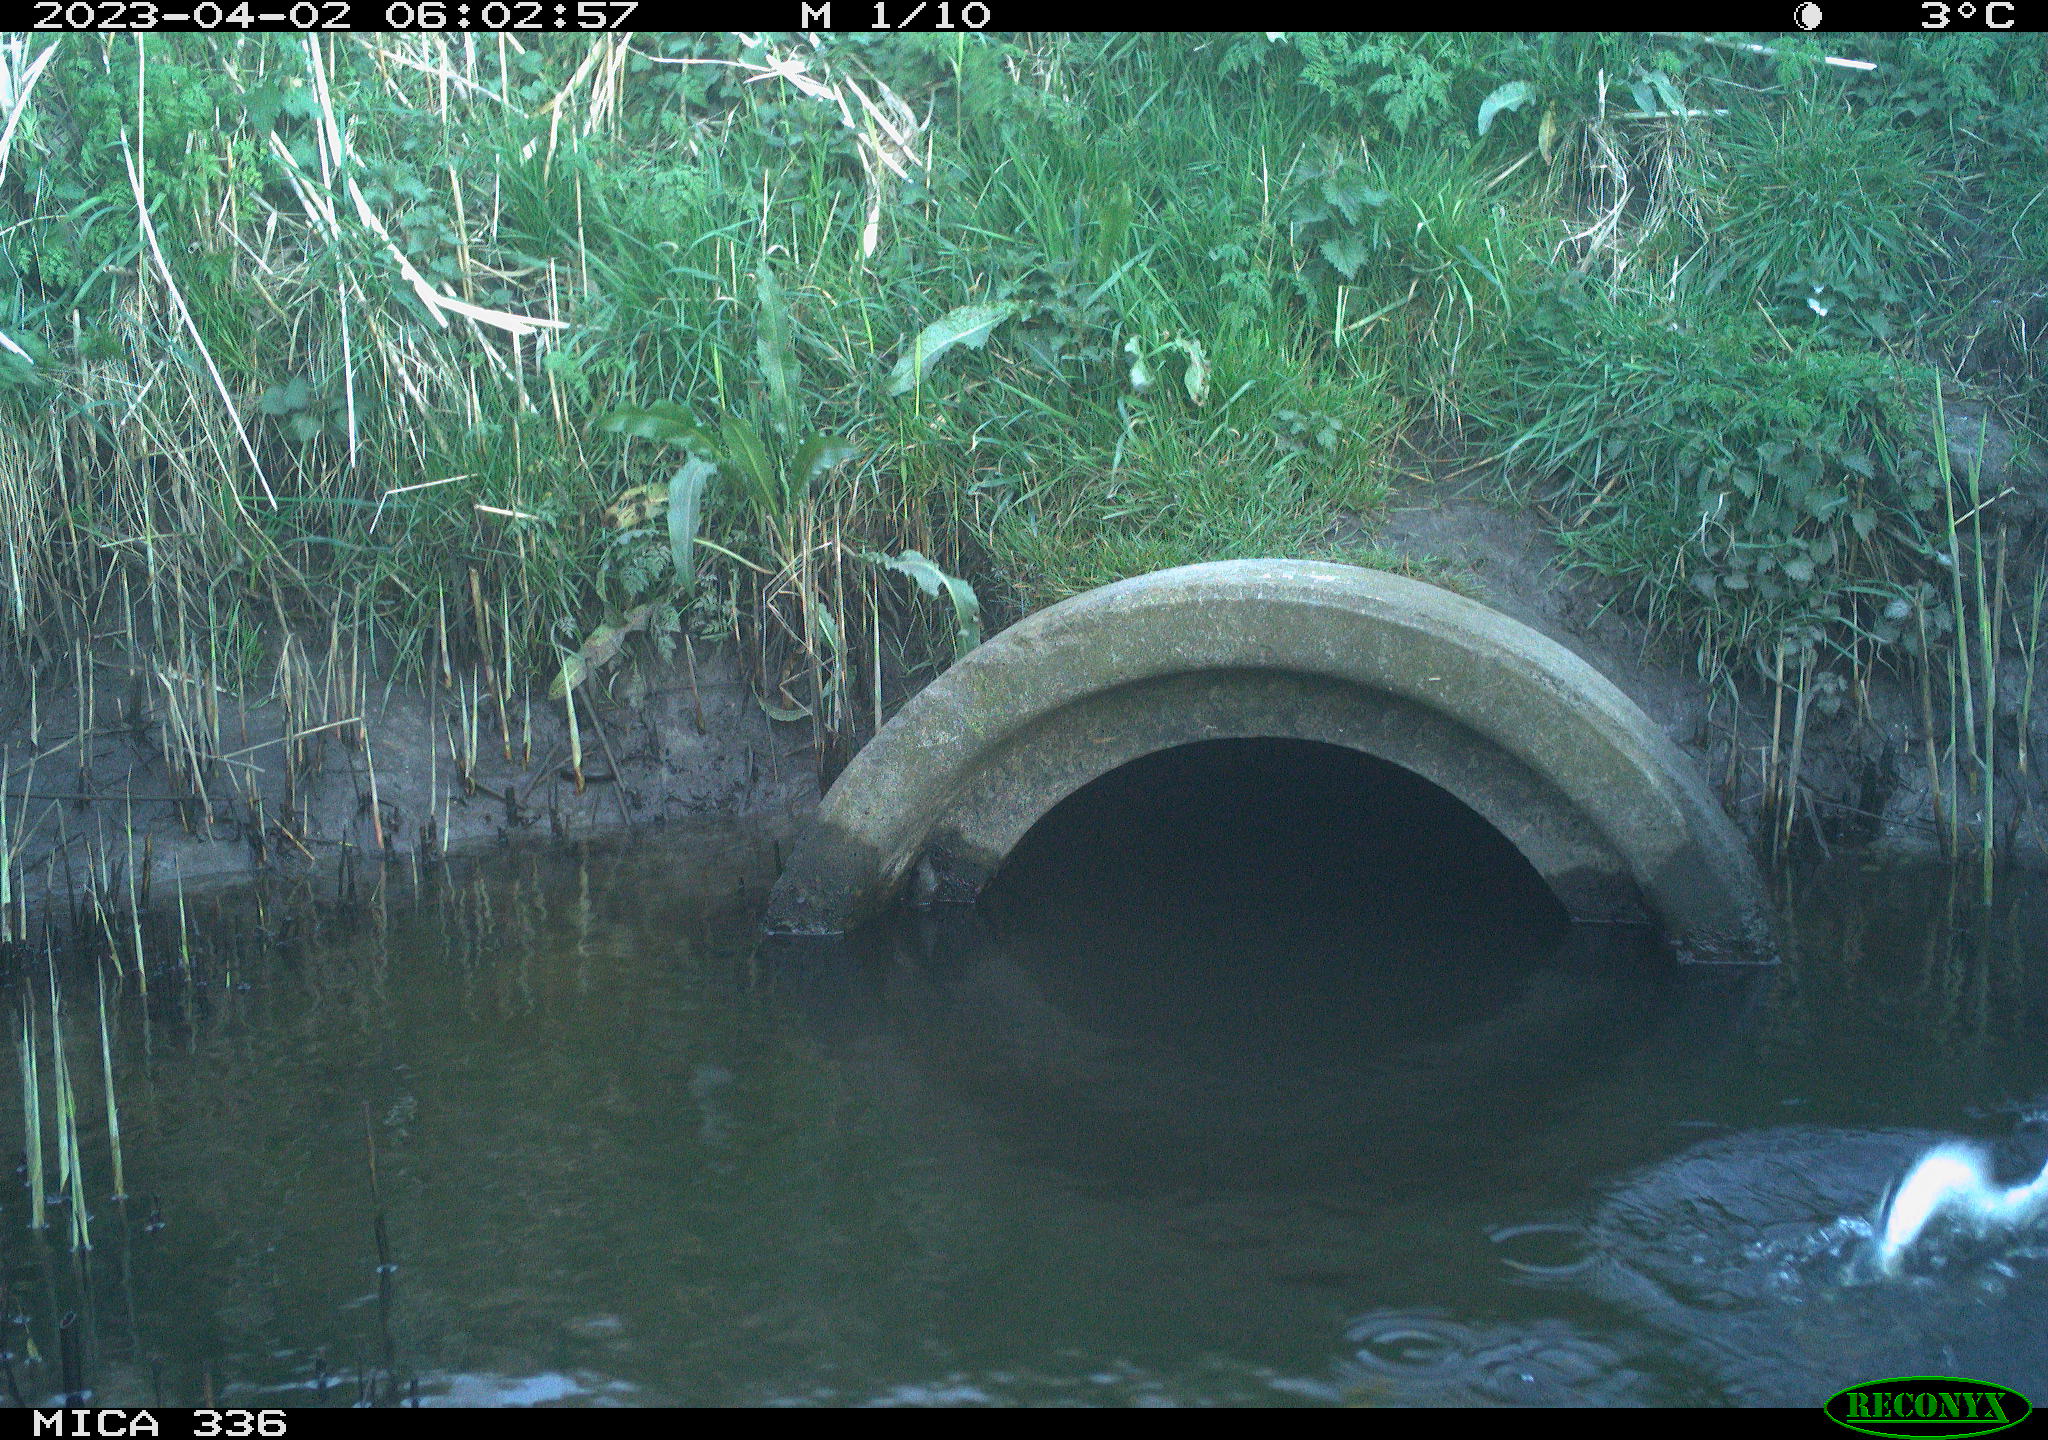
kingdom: Animalia
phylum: Chordata
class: Aves
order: Pelecaniformes
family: Ardeidae
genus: Ardea
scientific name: Ardea cinerea
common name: Grey heron
